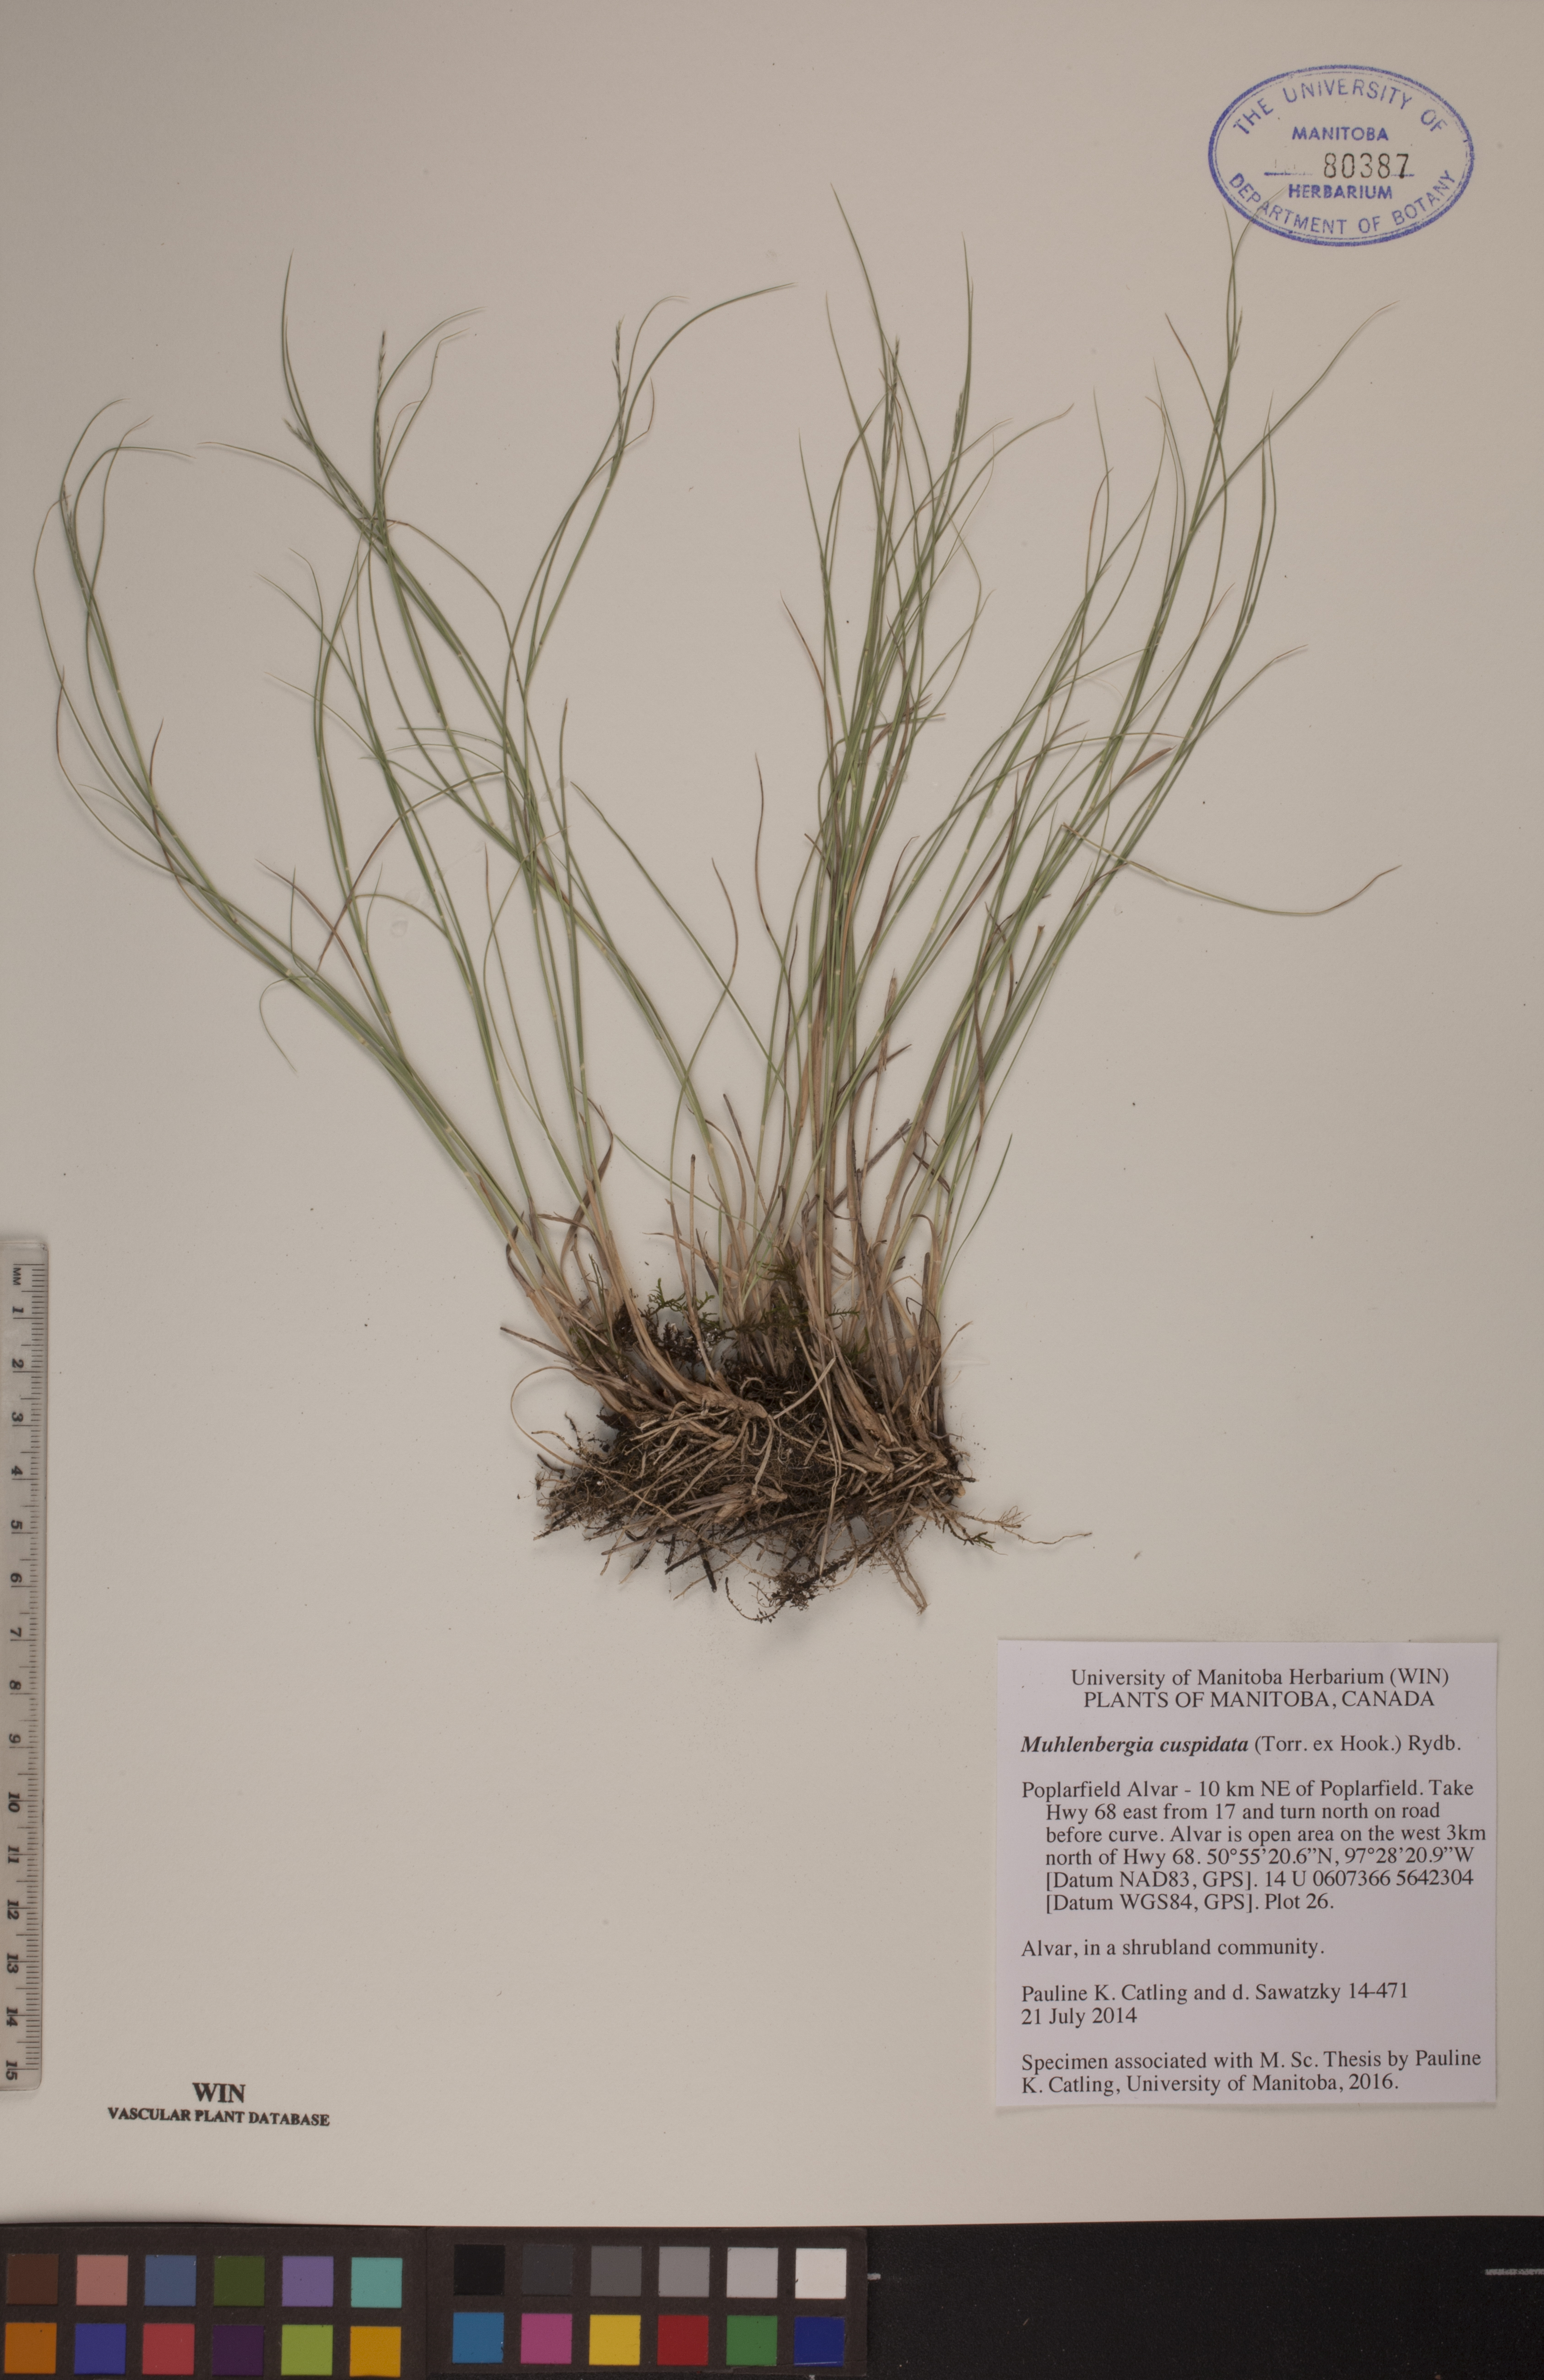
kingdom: Plantae
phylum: Tracheophyta
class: Liliopsida
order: Poales
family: Poaceae
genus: Muhlenbergia
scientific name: Muhlenbergia cuspidata
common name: Plains muhly
